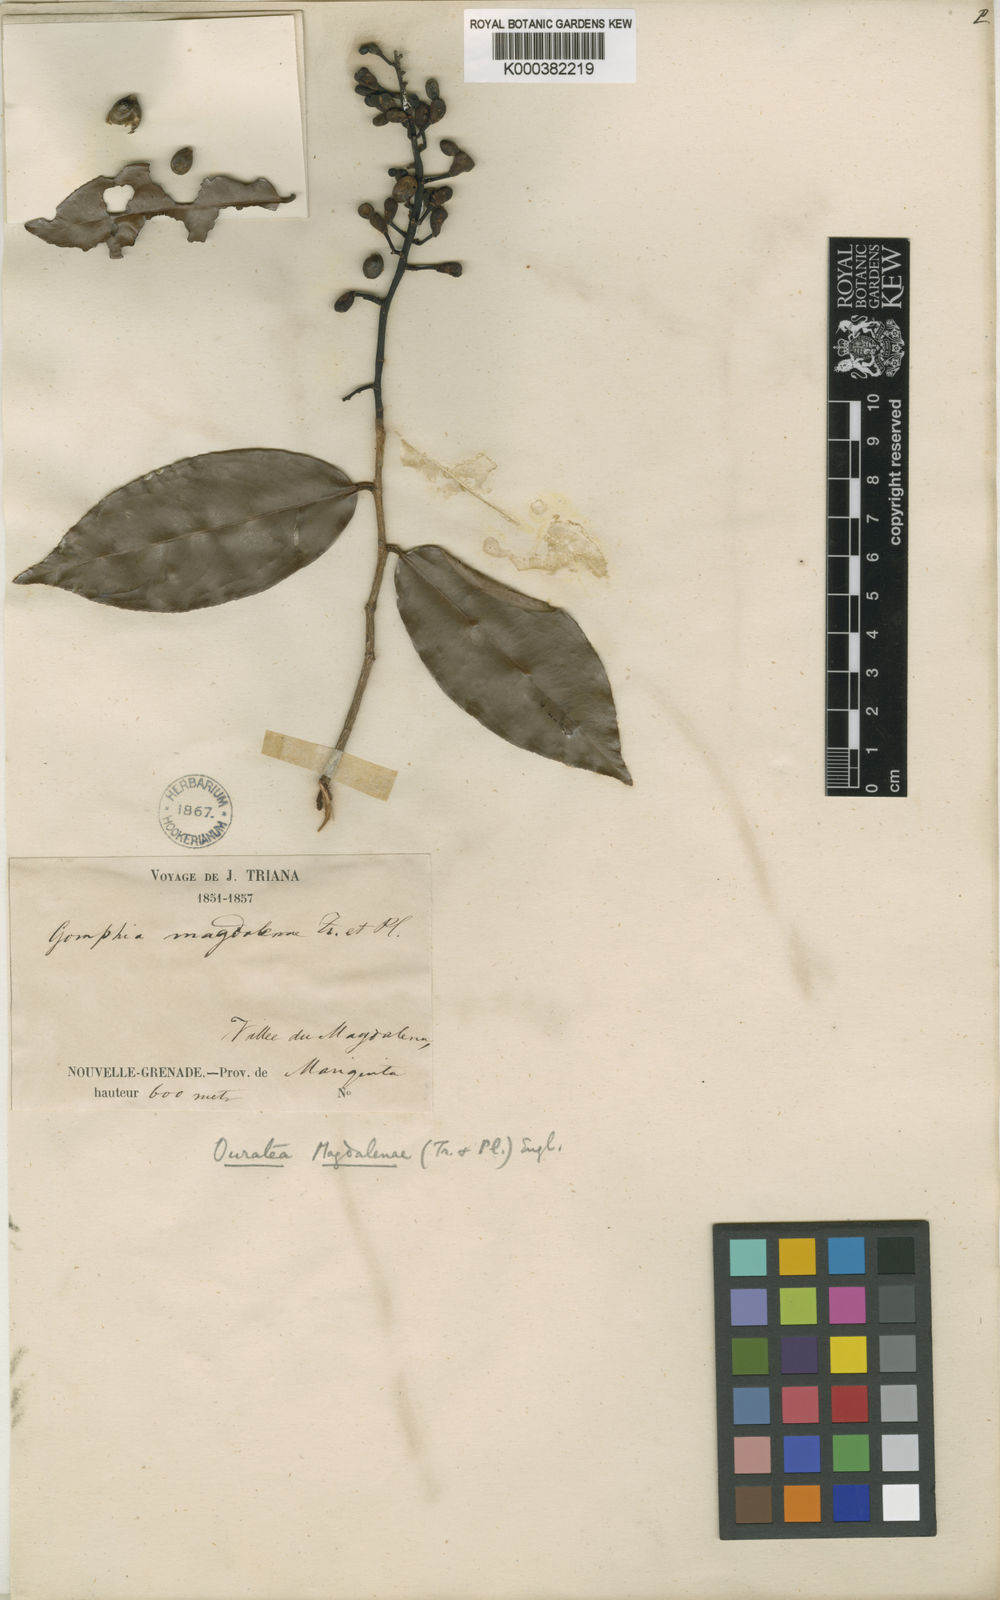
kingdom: Plantae
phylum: Tracheophyta
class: Magnoliopsida
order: Malpighiales
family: Ochnaceae
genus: Ouratea
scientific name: Ouratea
